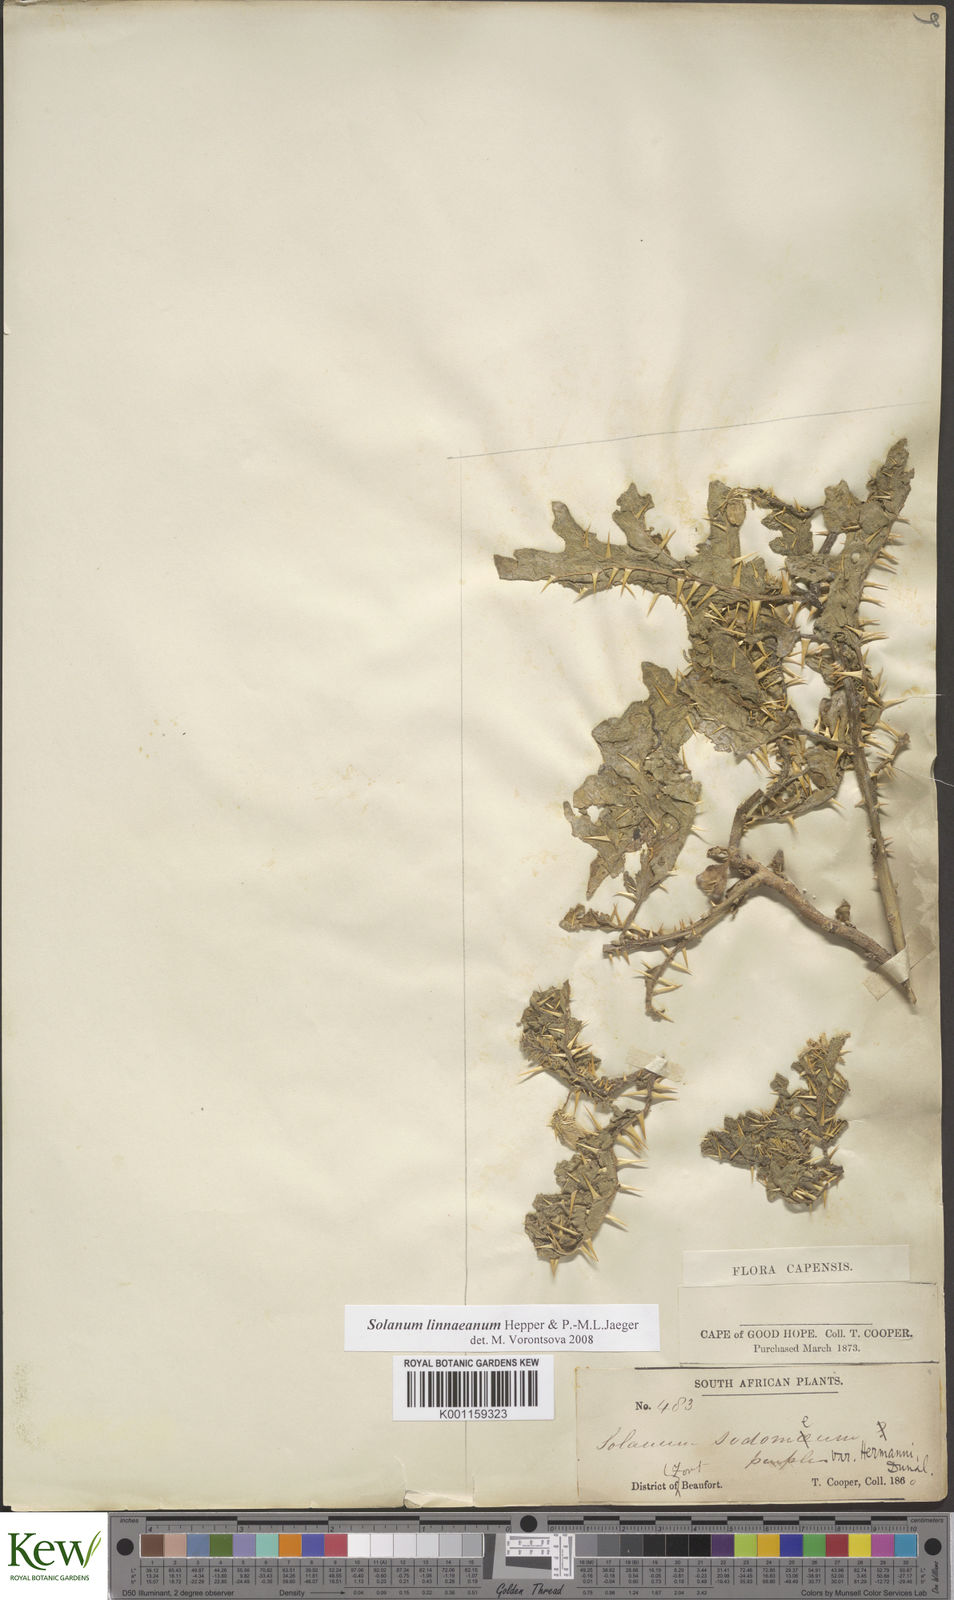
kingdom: Plantae
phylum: Tracheophyta
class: Magnoliopsida
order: Solanales
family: Solanaceae
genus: Solanum
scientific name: Solanum linnaeanum
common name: Nightshade
